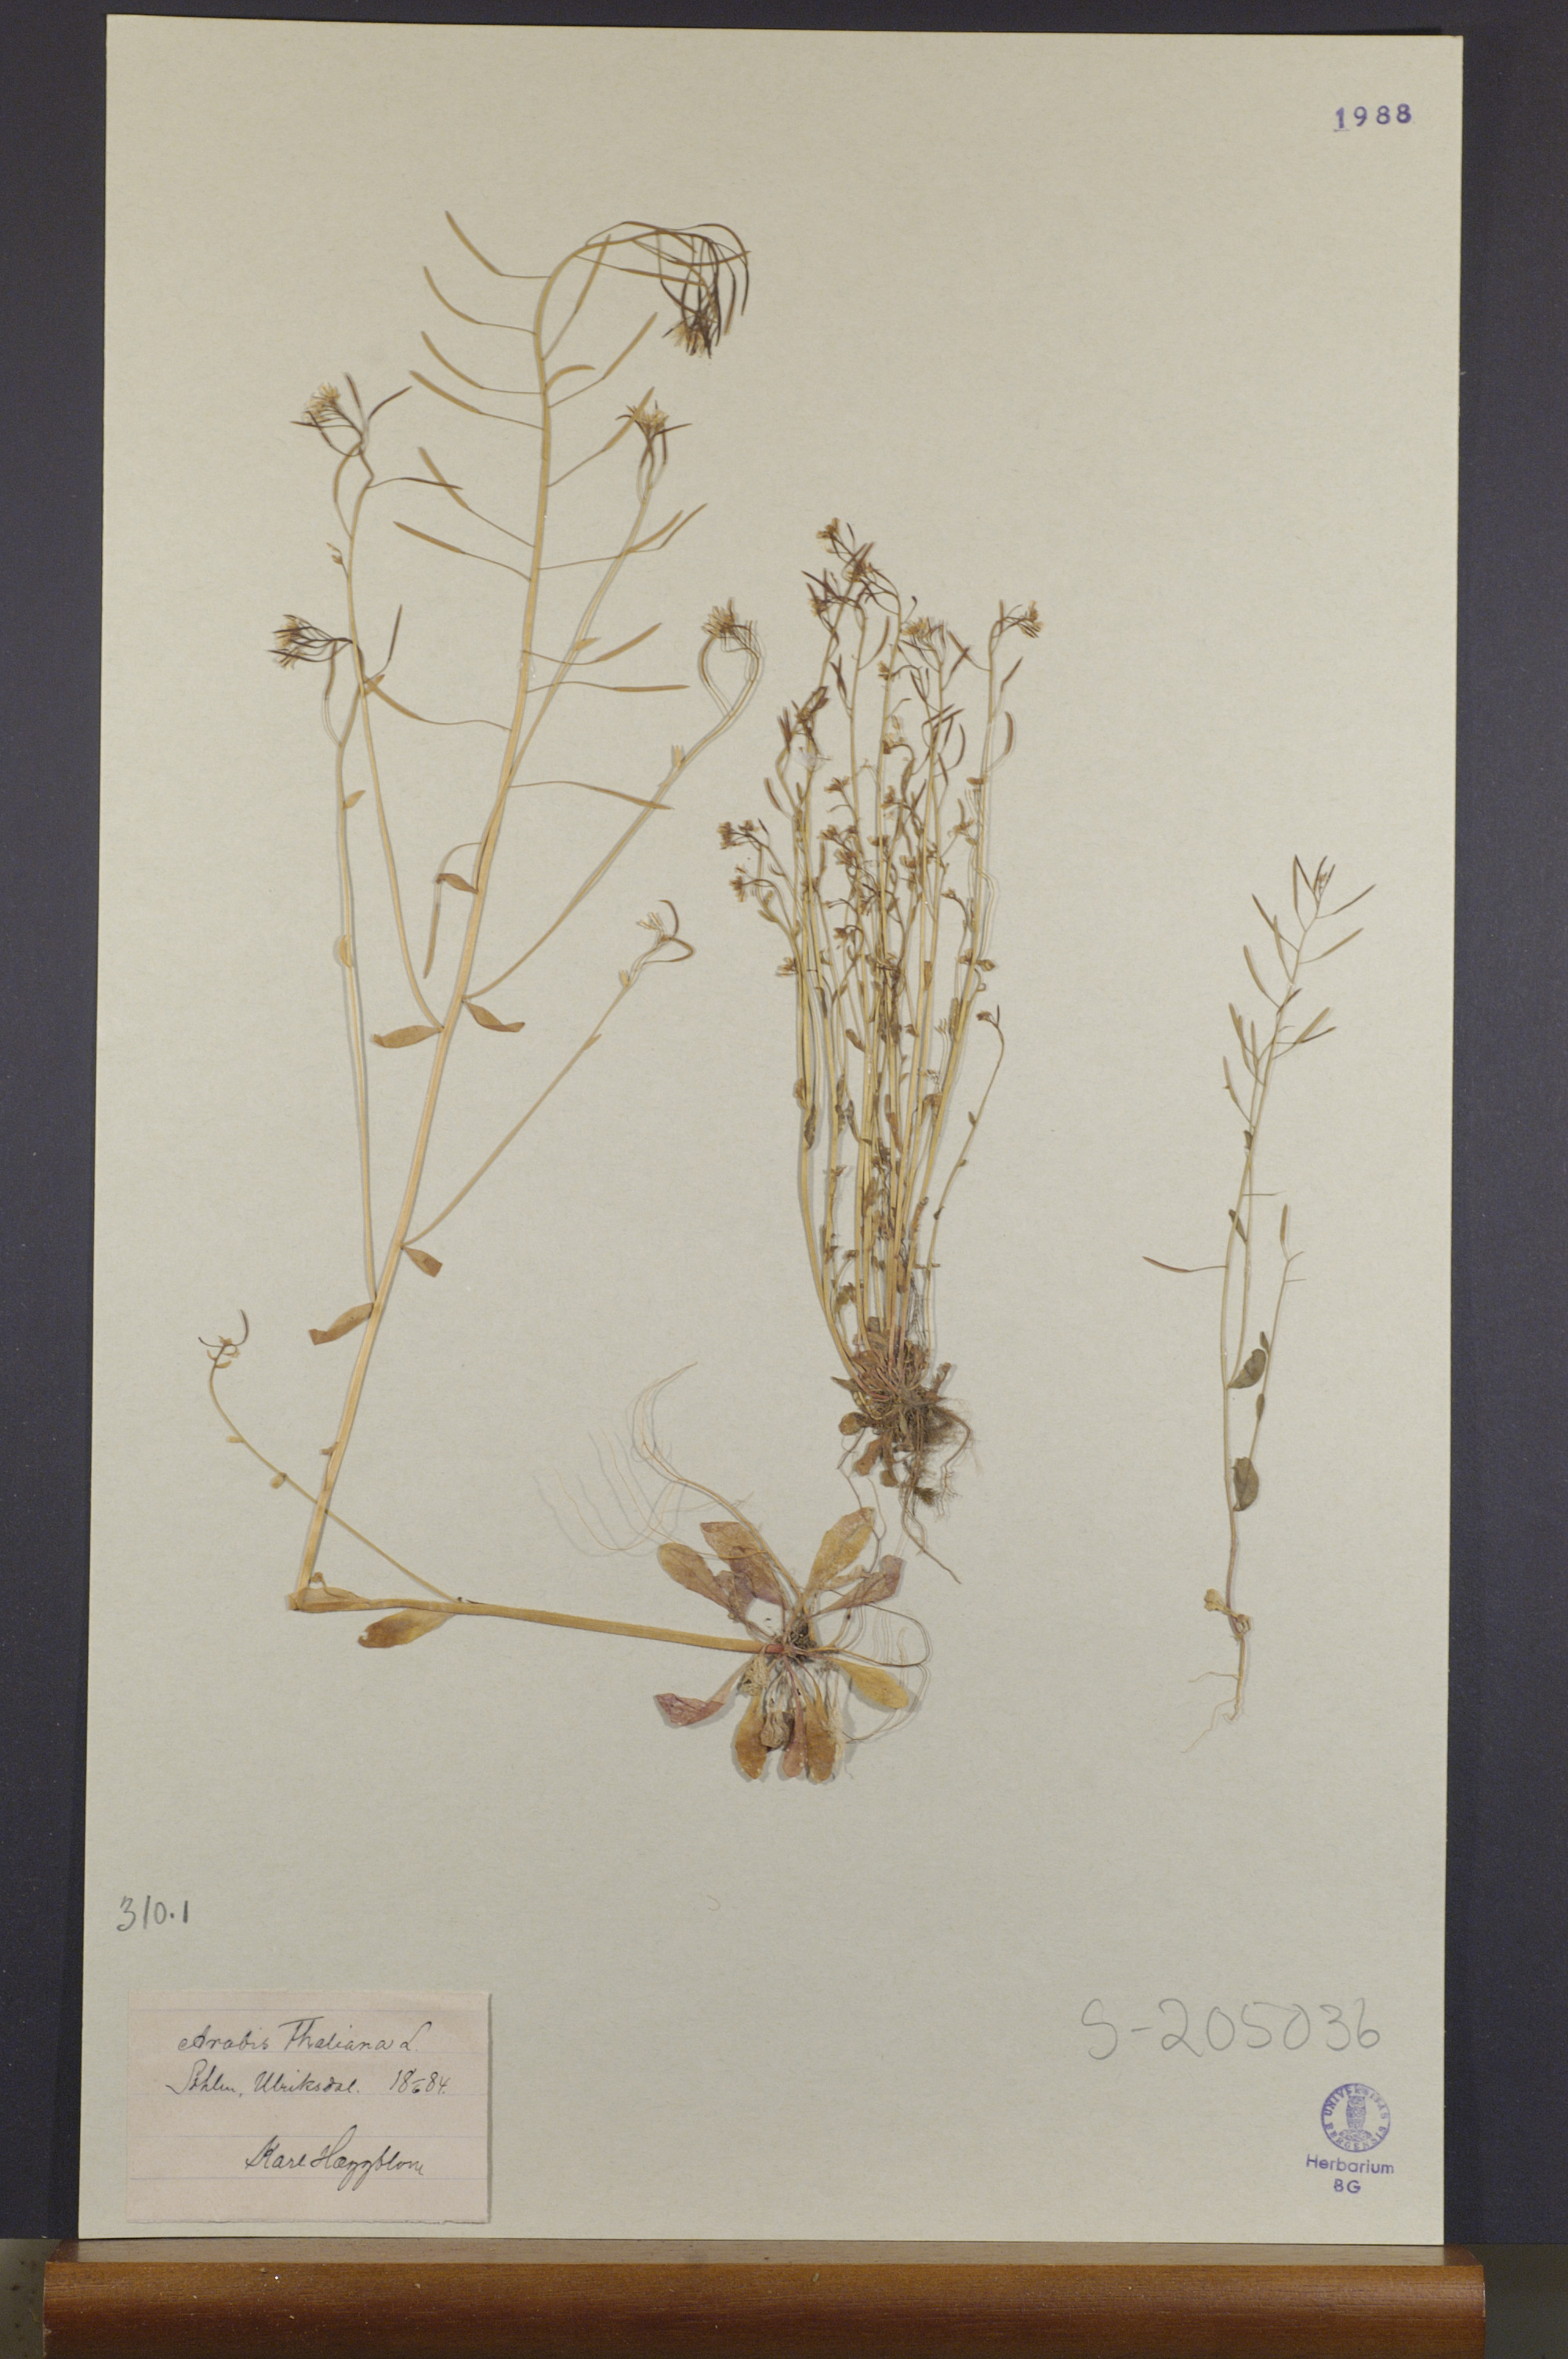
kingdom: Plantae
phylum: Tracheophyta
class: Magnoliopsida
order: Brassicales
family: Brassicaceae
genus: Arabidopsis
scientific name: Arabidopsis thaliana
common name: Thale cress
